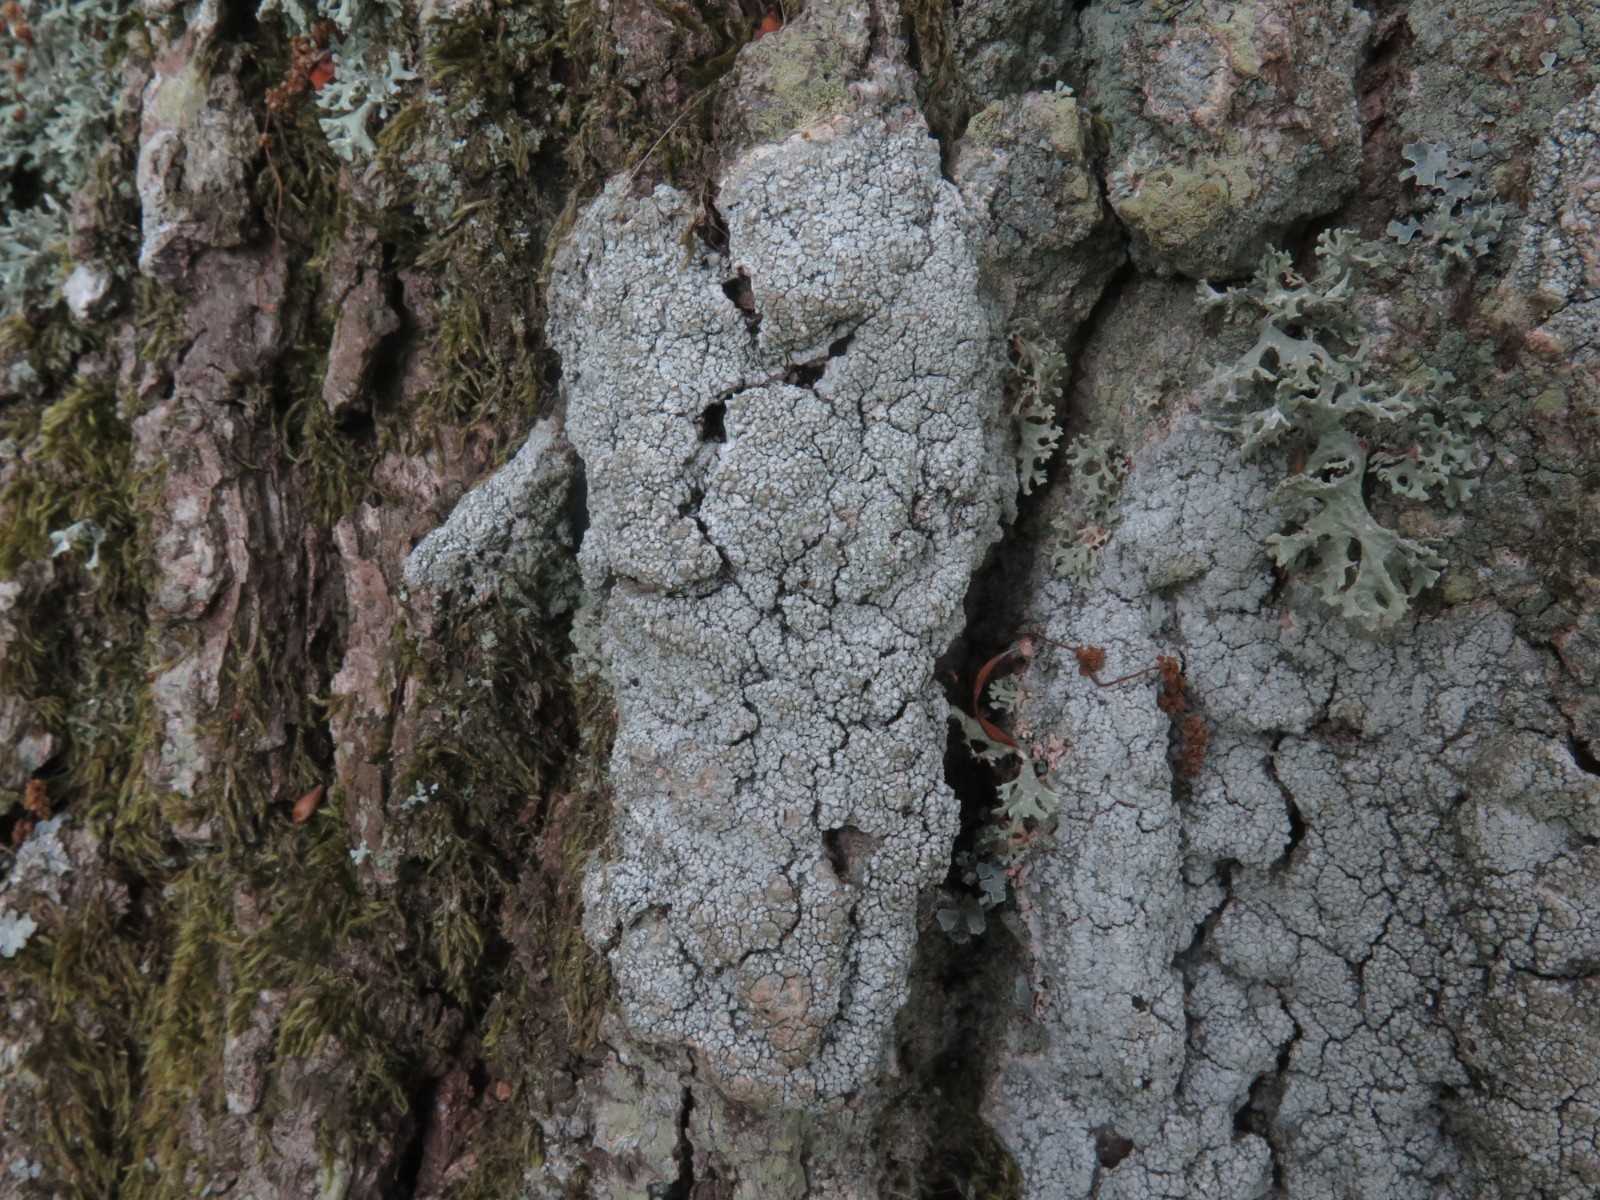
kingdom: Fungi
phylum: Ascomycota
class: Lecanoromycetes
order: Pertusariales
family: Pertusariaceae
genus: Lepra
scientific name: Lepra amara
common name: bitter prikvortelav
